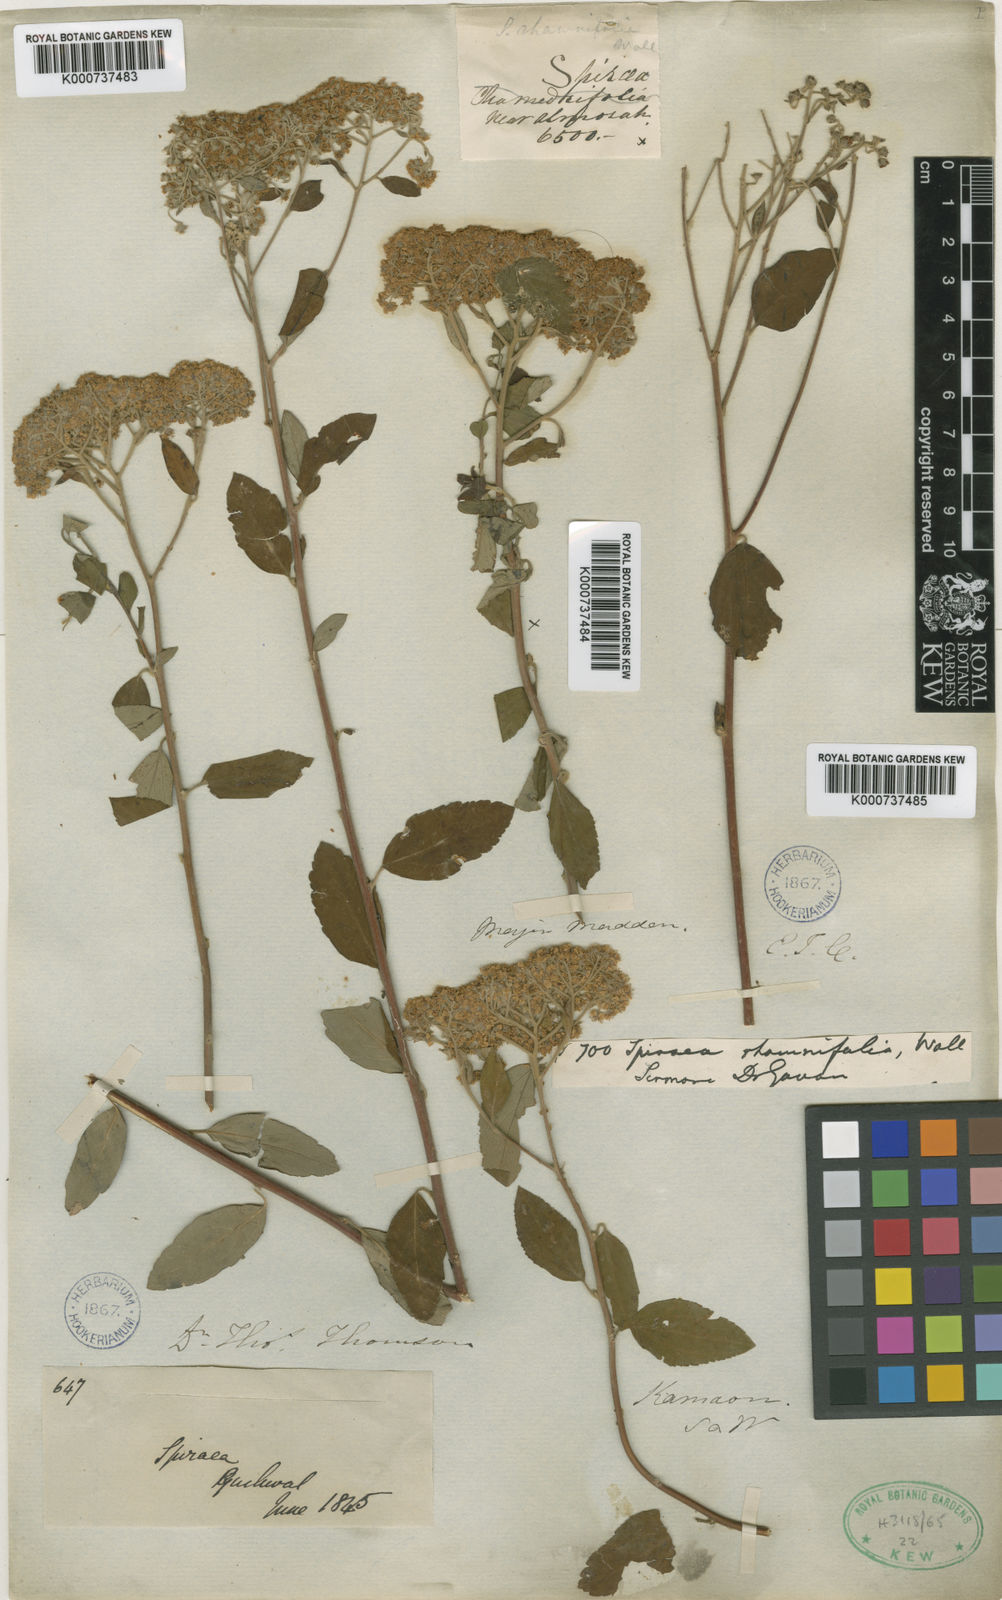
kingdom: Plantae
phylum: Tracheophyta
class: Magnoliopsida
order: Rosales
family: Rosaceae
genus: Spiraea
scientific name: Spiraea
